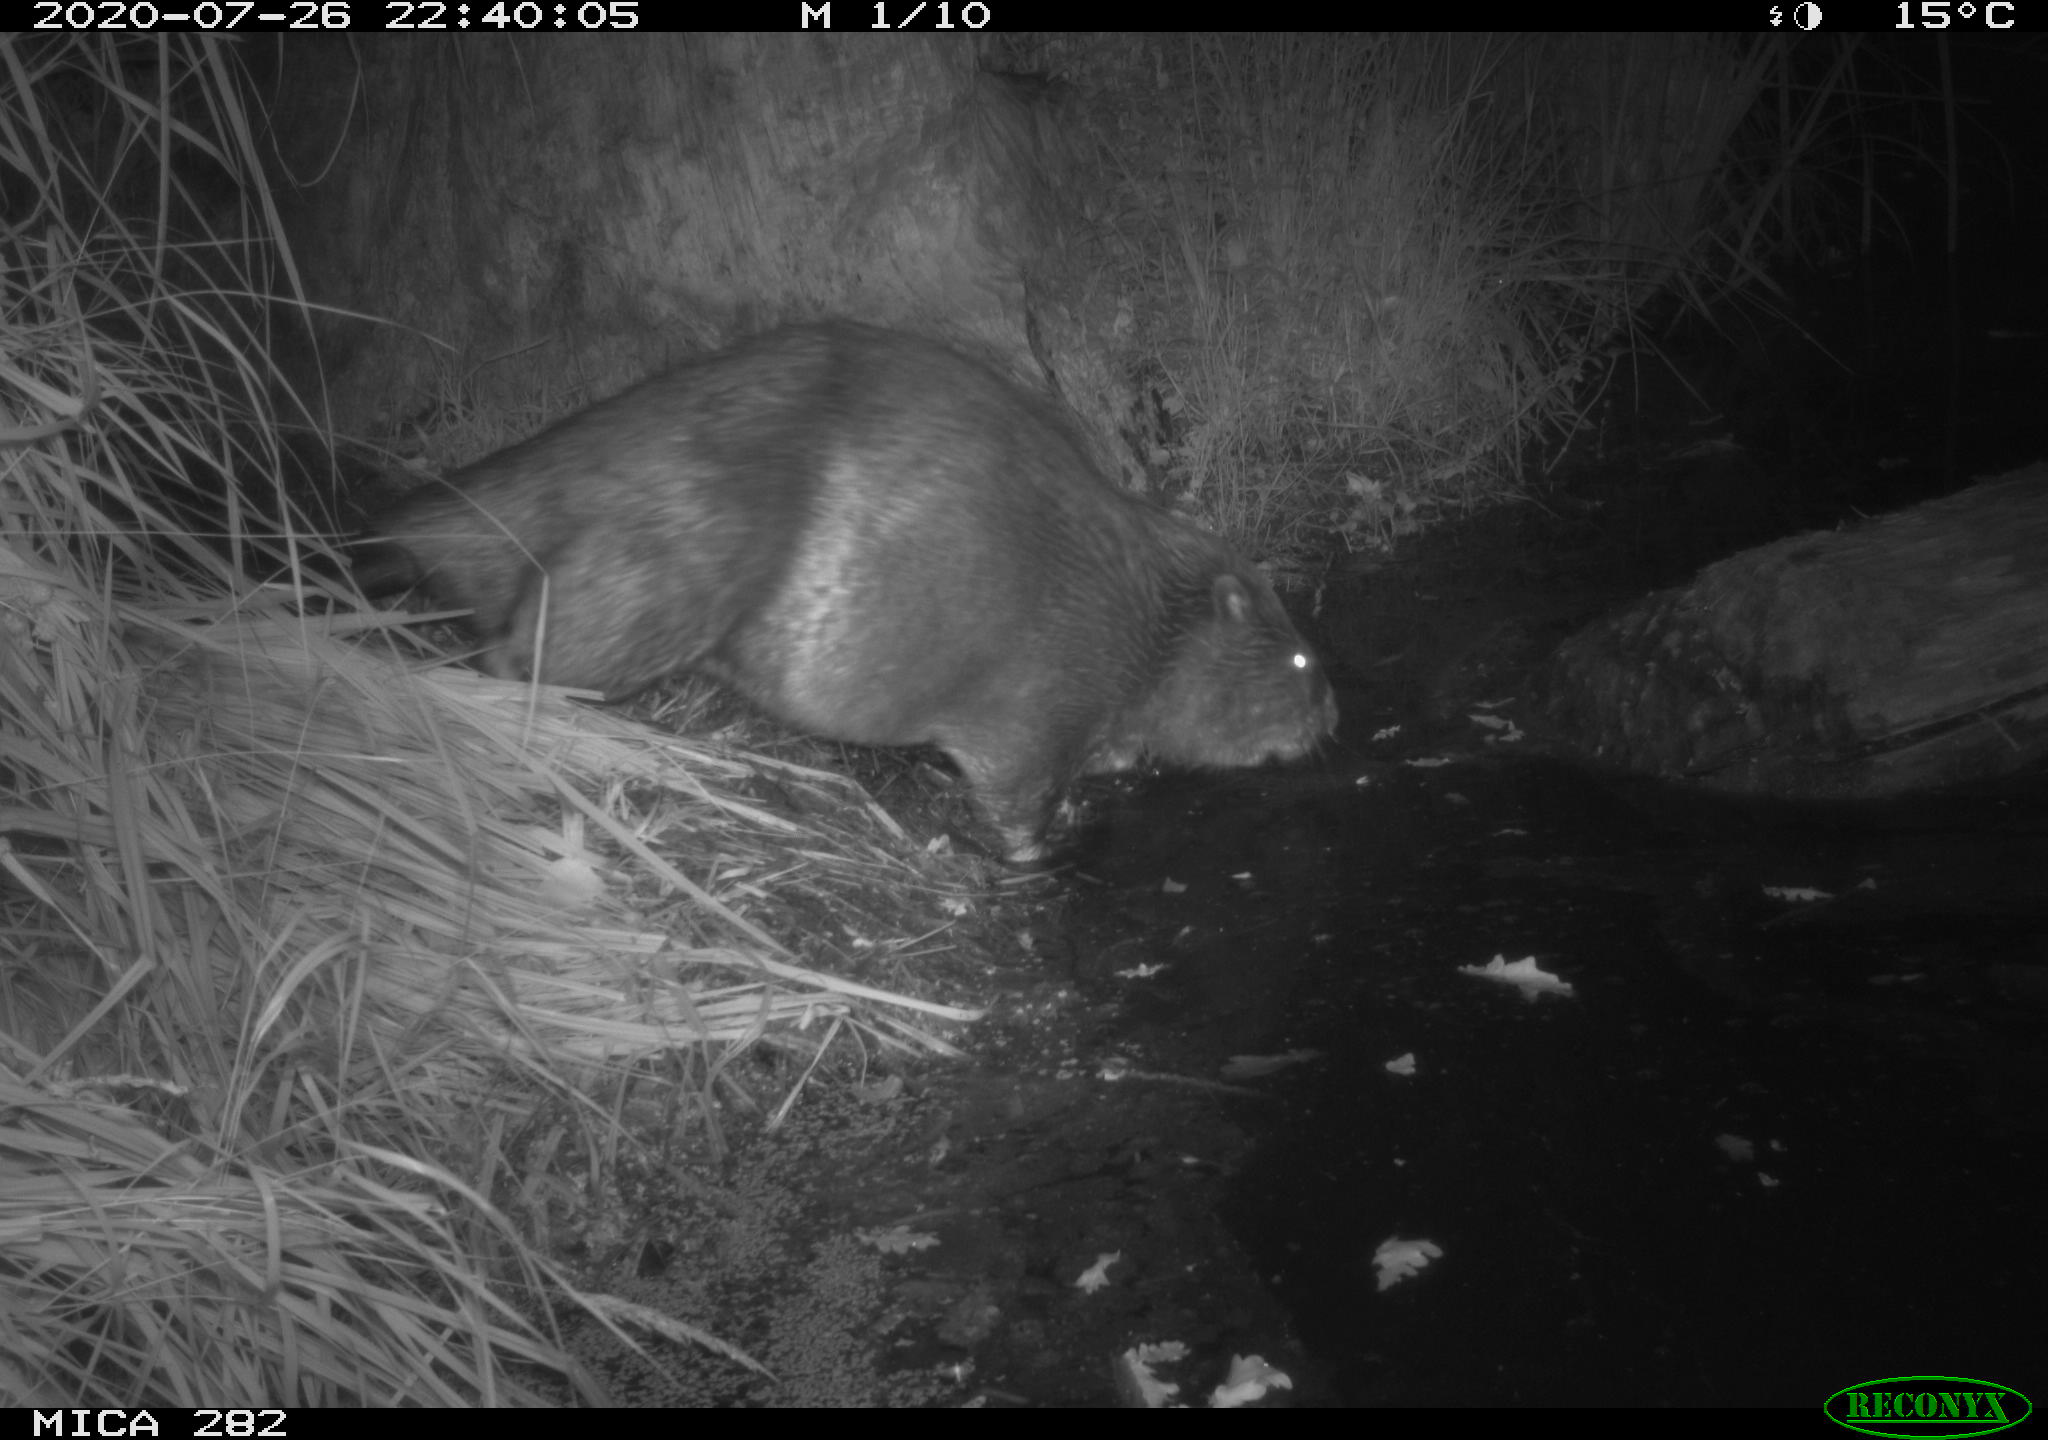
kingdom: Animalia
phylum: Chordata
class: Mammalia
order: Rodentia
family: Castoridae
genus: Castor
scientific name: Castor fiber
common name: Eurasian beaver
